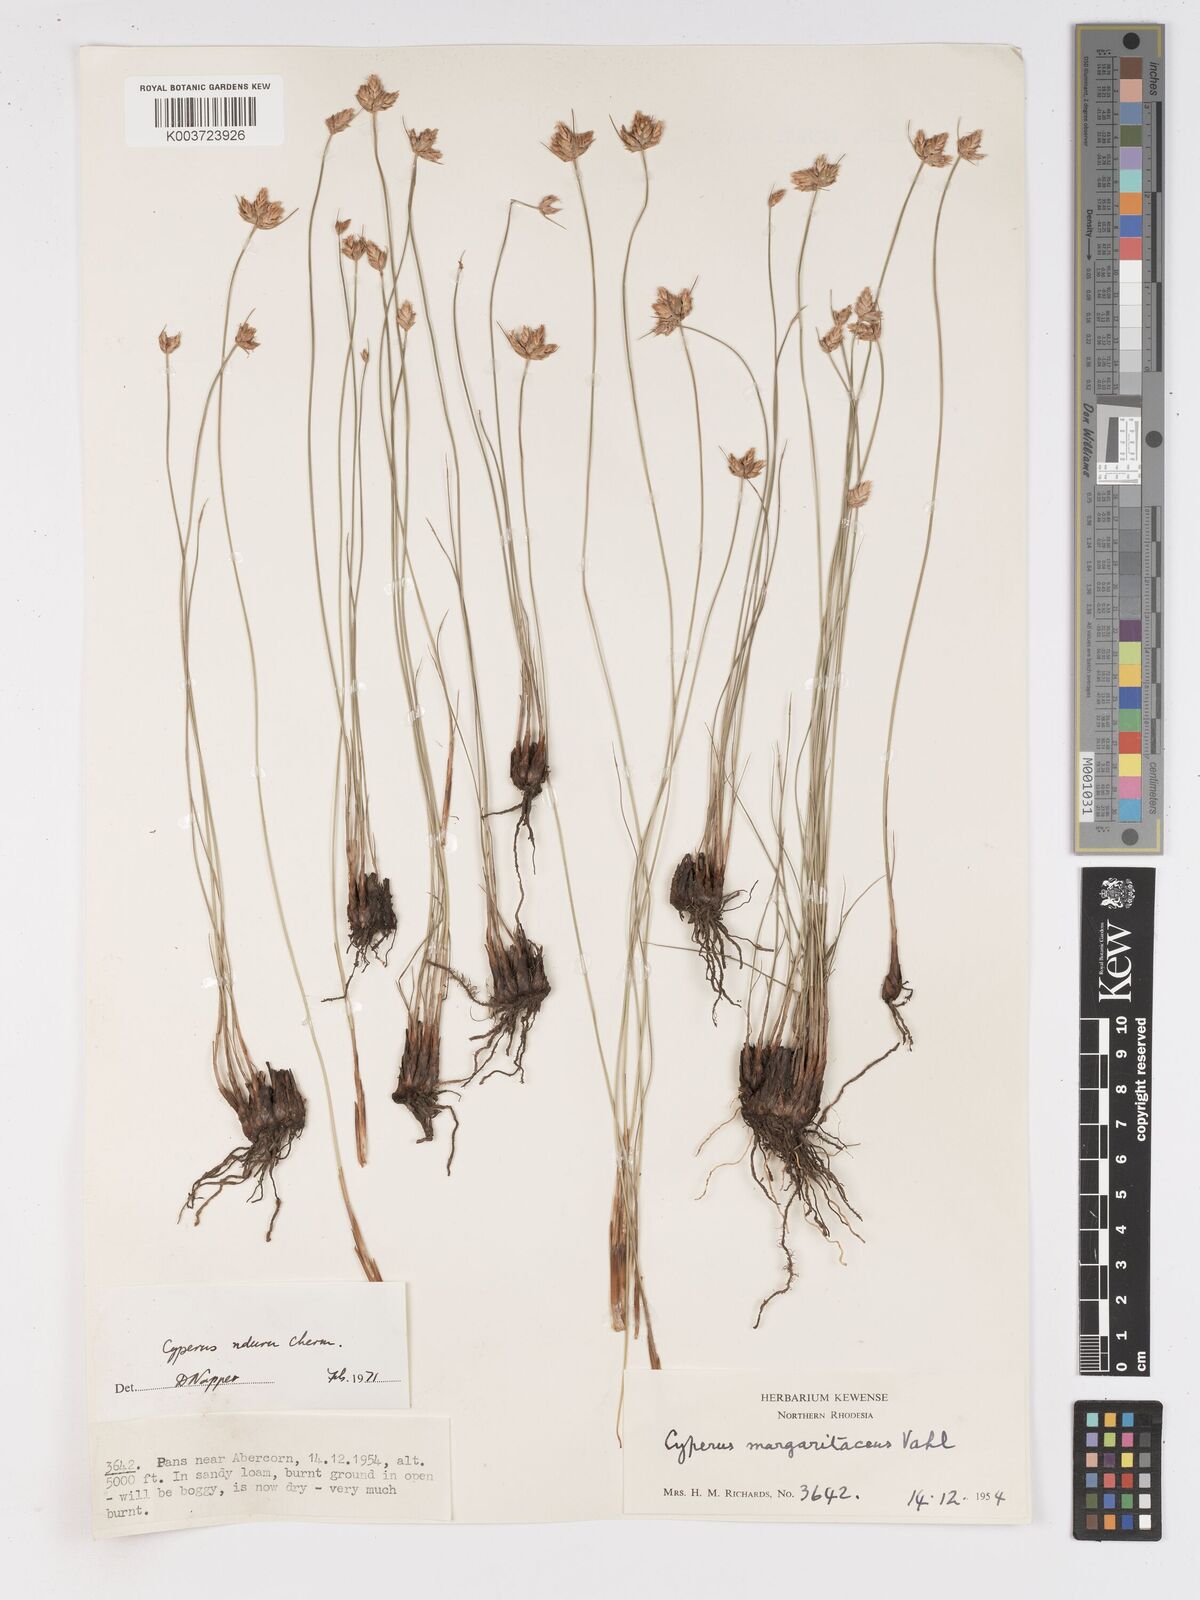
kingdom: Plantae
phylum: Tracheophyta
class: Liliopsida
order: Poales
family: Cyperaceae
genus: Cyperus
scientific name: Cyperus nduru
